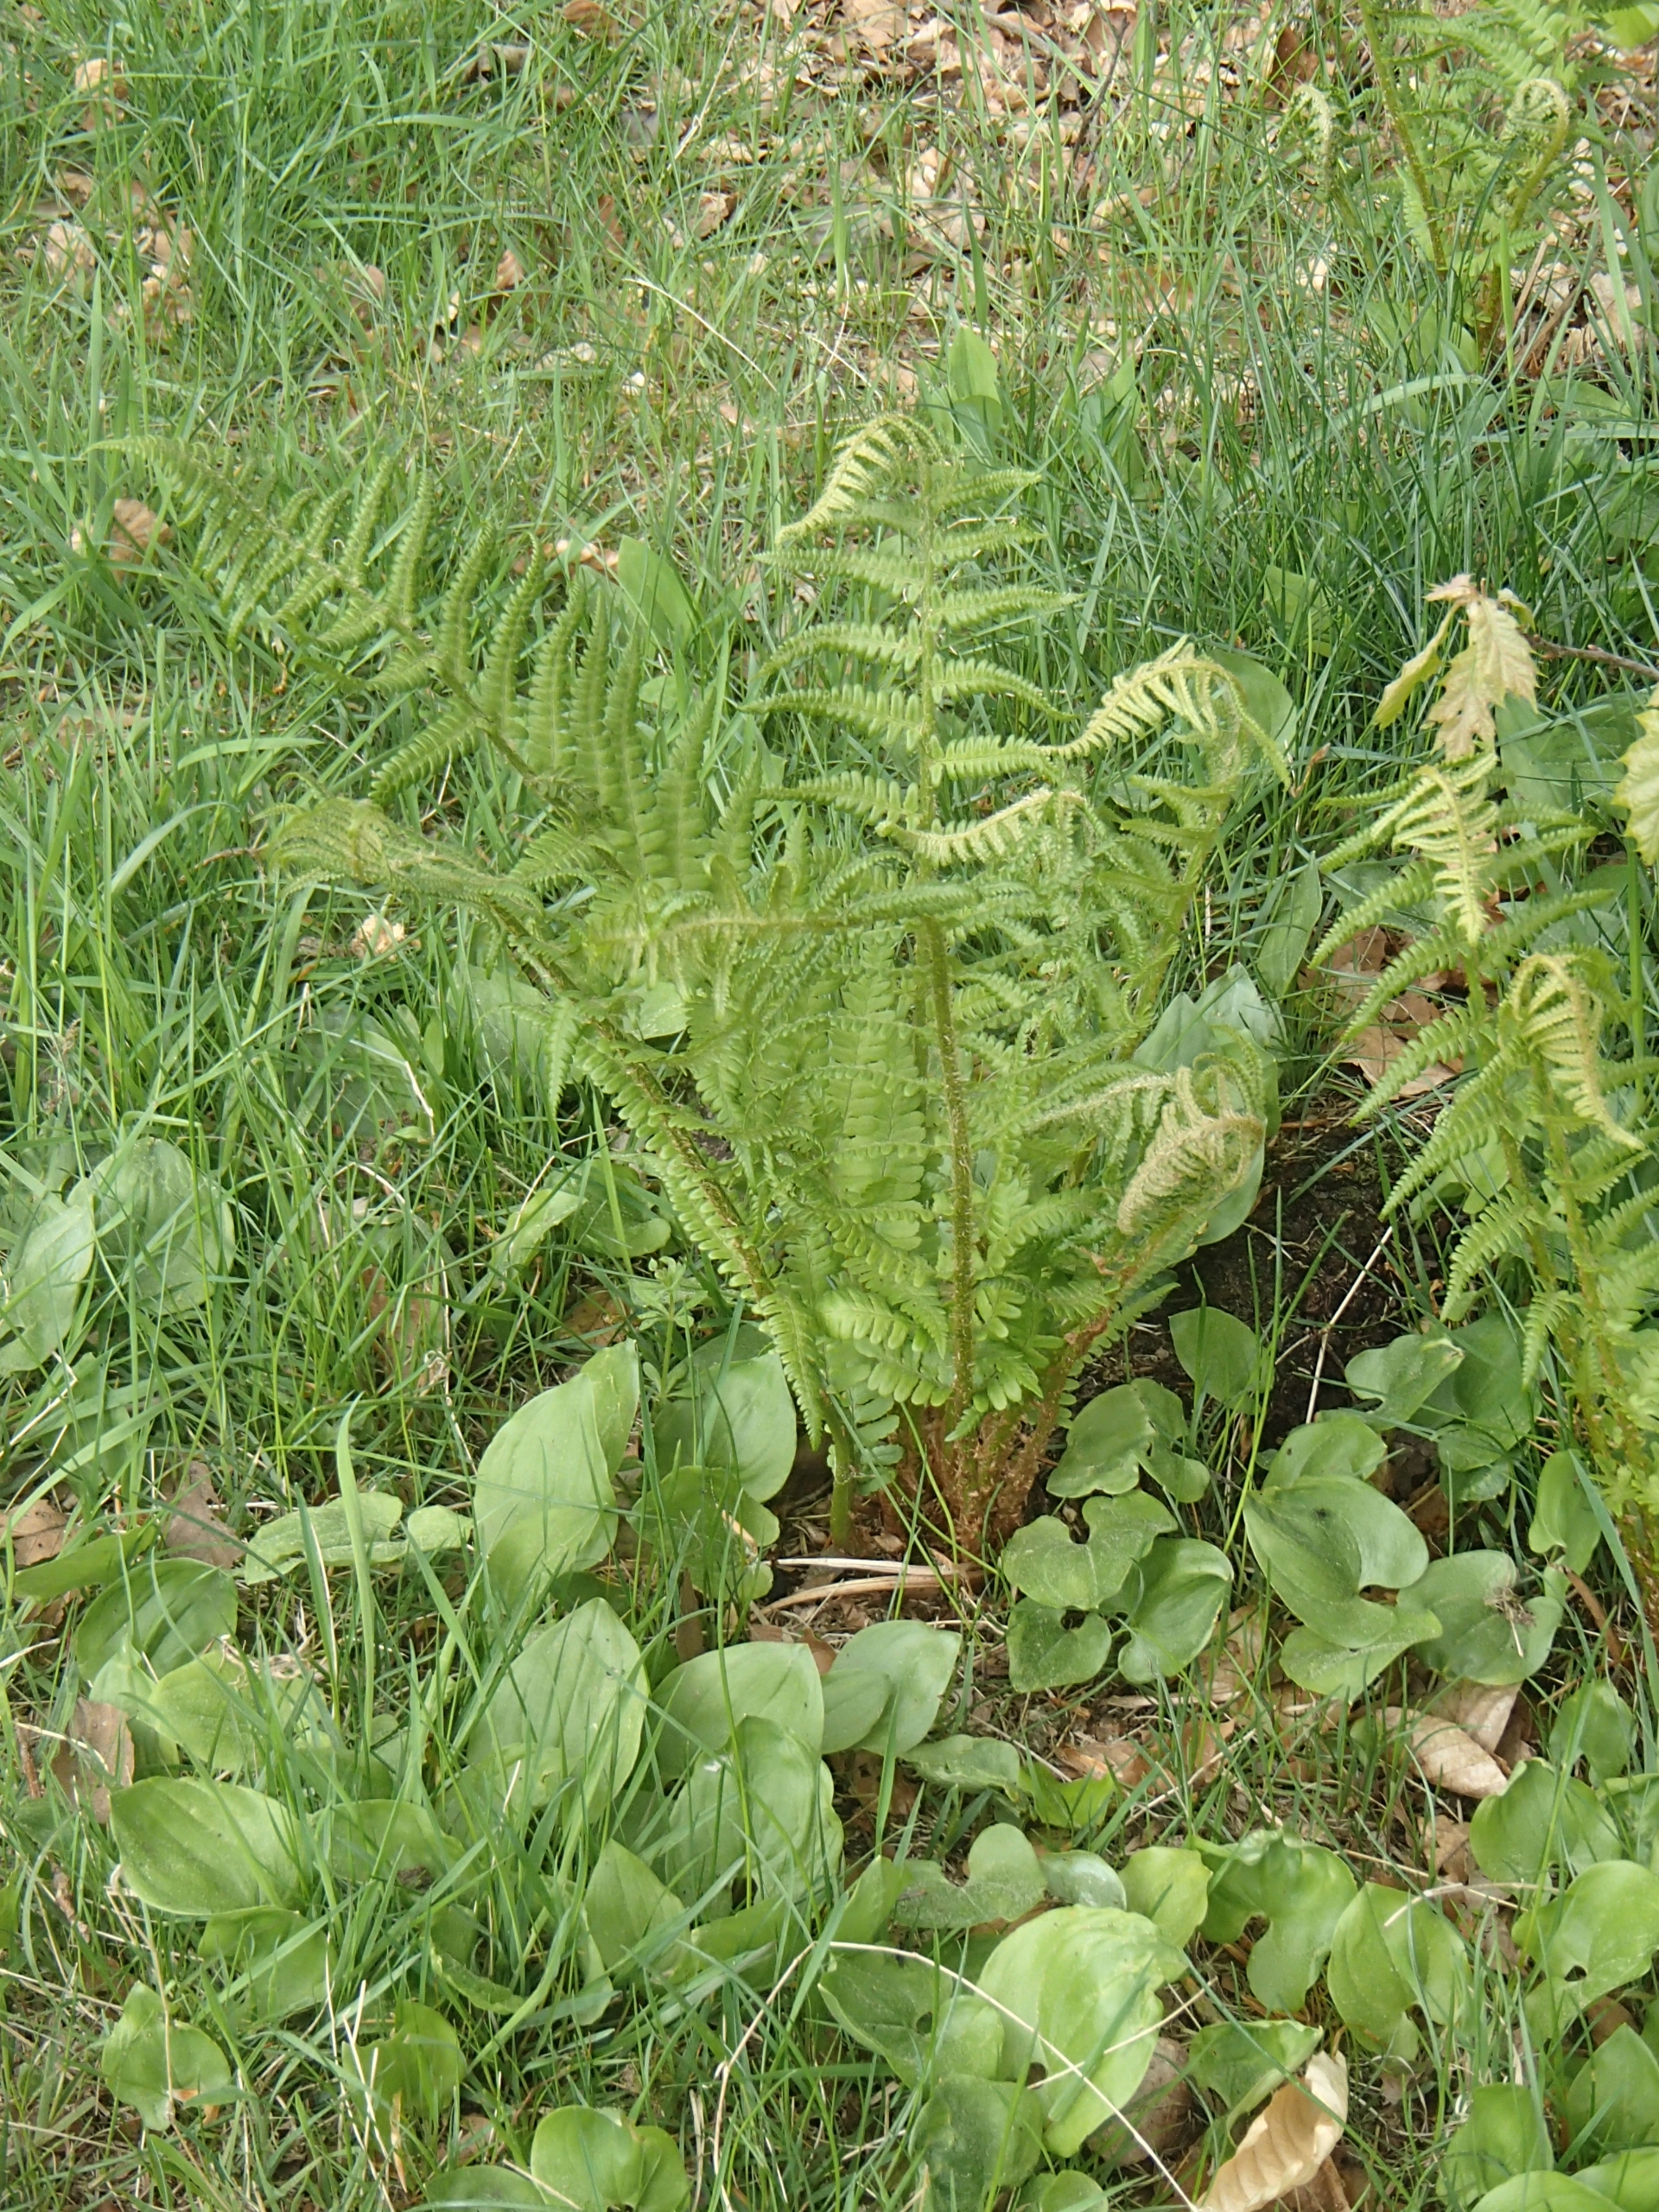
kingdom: Plantae
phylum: Tracheophyta
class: Polypodiopsida
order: Polypodiales
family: Dryopteridaceae
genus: Dryopteris
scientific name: Dryopteris filix-mas
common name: Almindelig mangeløv
